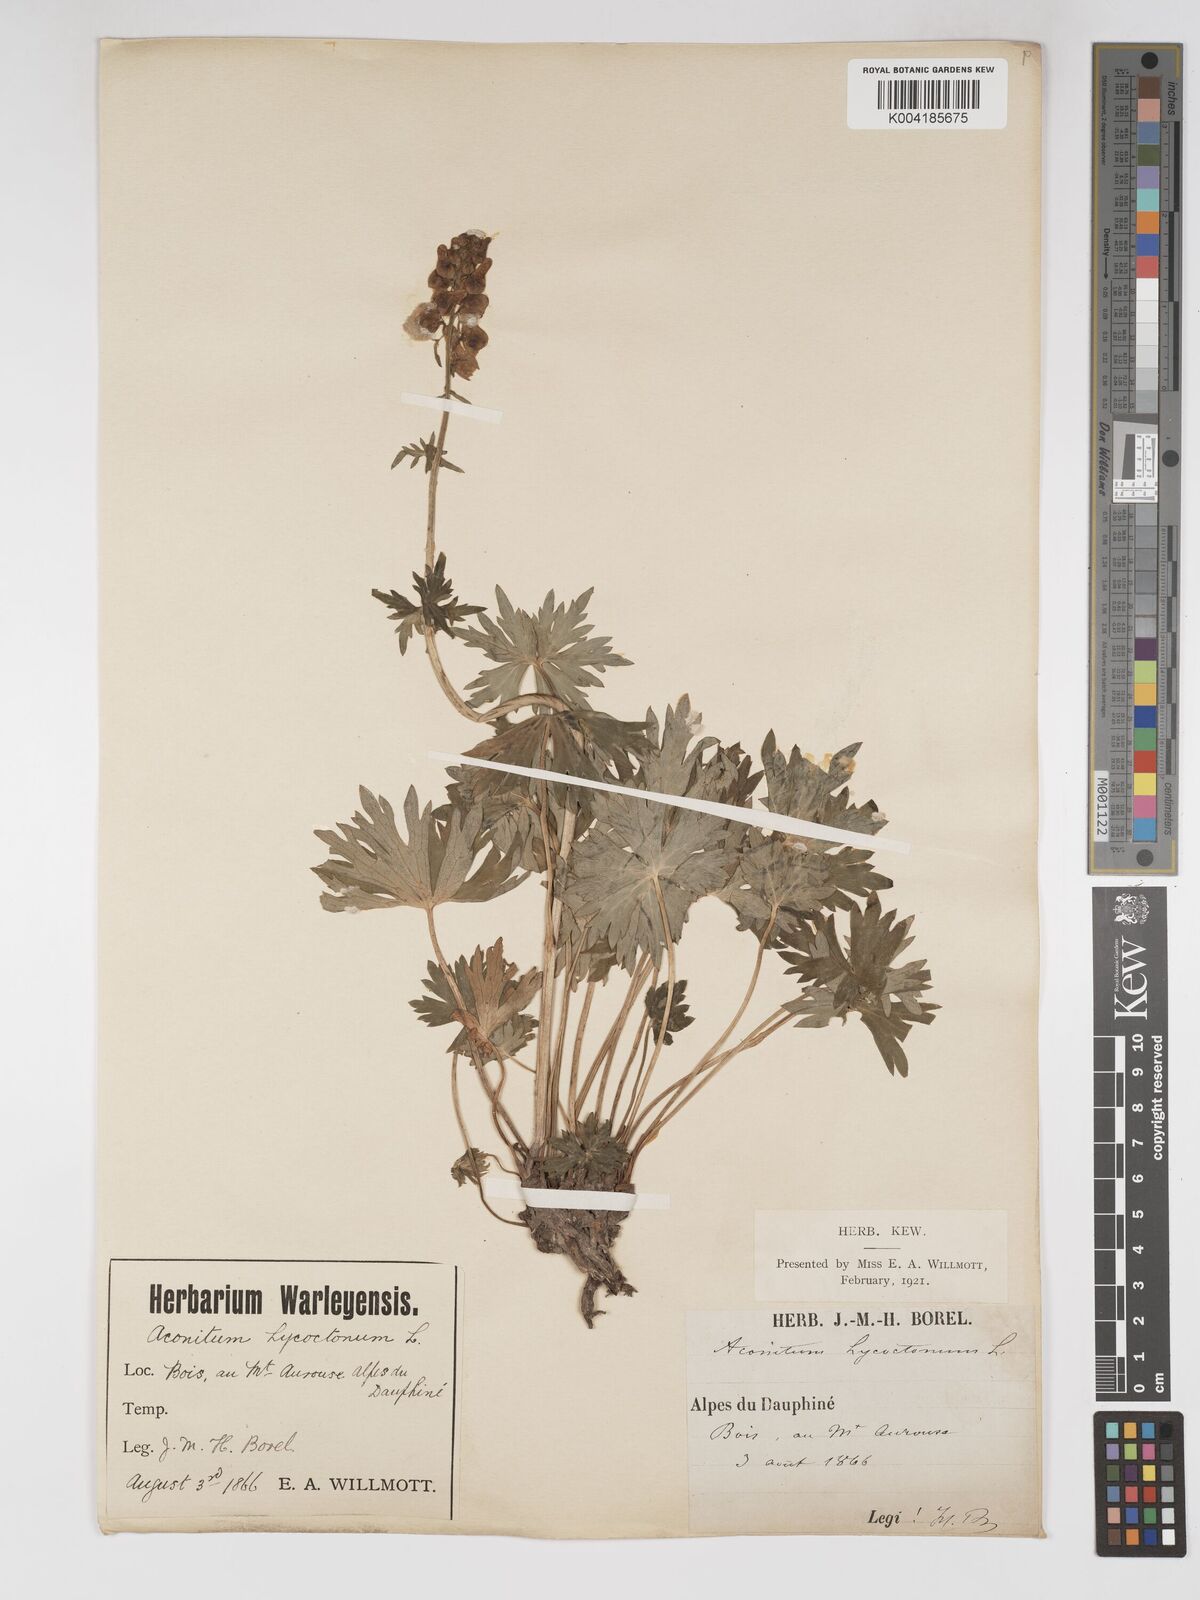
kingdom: Plantae
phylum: Tracheophyta
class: Magnoliopsida
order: Ranunculales
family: Ranunculaceae
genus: Aconitum
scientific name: Aconitum lycoctonum
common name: Wolf's-bane
